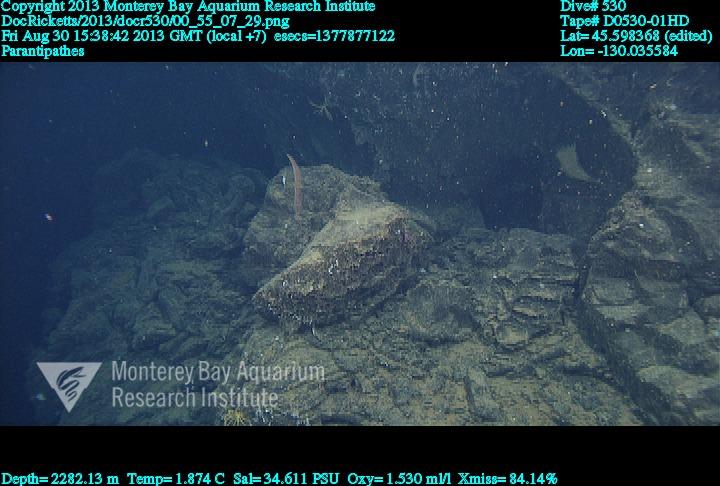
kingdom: Animalia
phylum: Cnidaria
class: Anthozoa
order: Antipatharia
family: Schizopathidae
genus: Parantipathes
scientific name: Parantipathes
